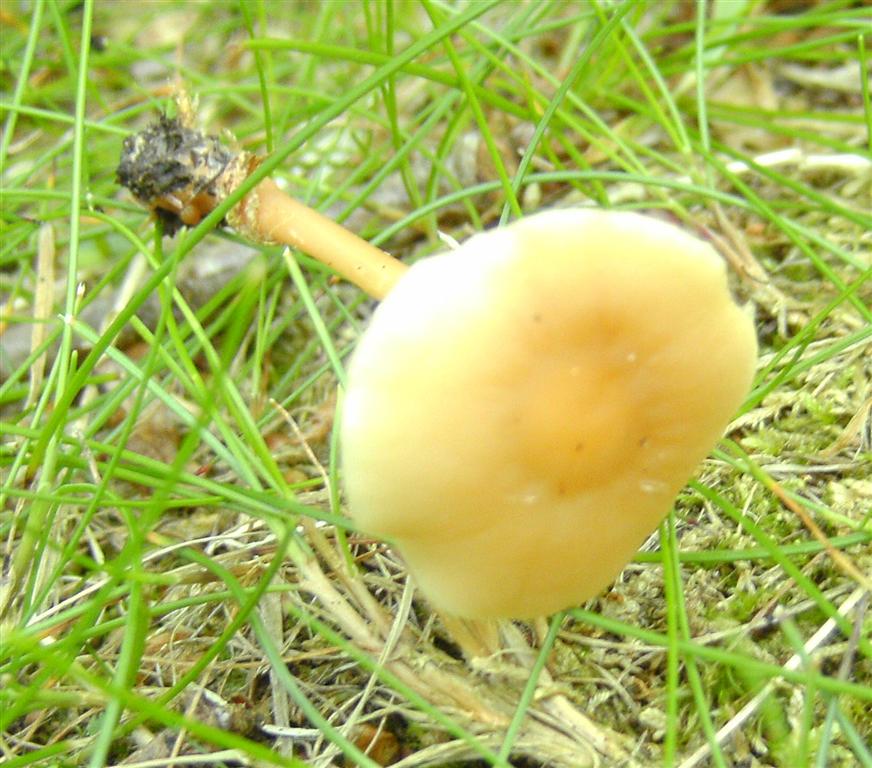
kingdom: Fungi
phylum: Basidiomycota
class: Agaricomycetes
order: Agaricales
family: Omphalotaceae
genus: Gymnopus
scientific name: Gymnopus aquosus
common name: bleg fladhat
